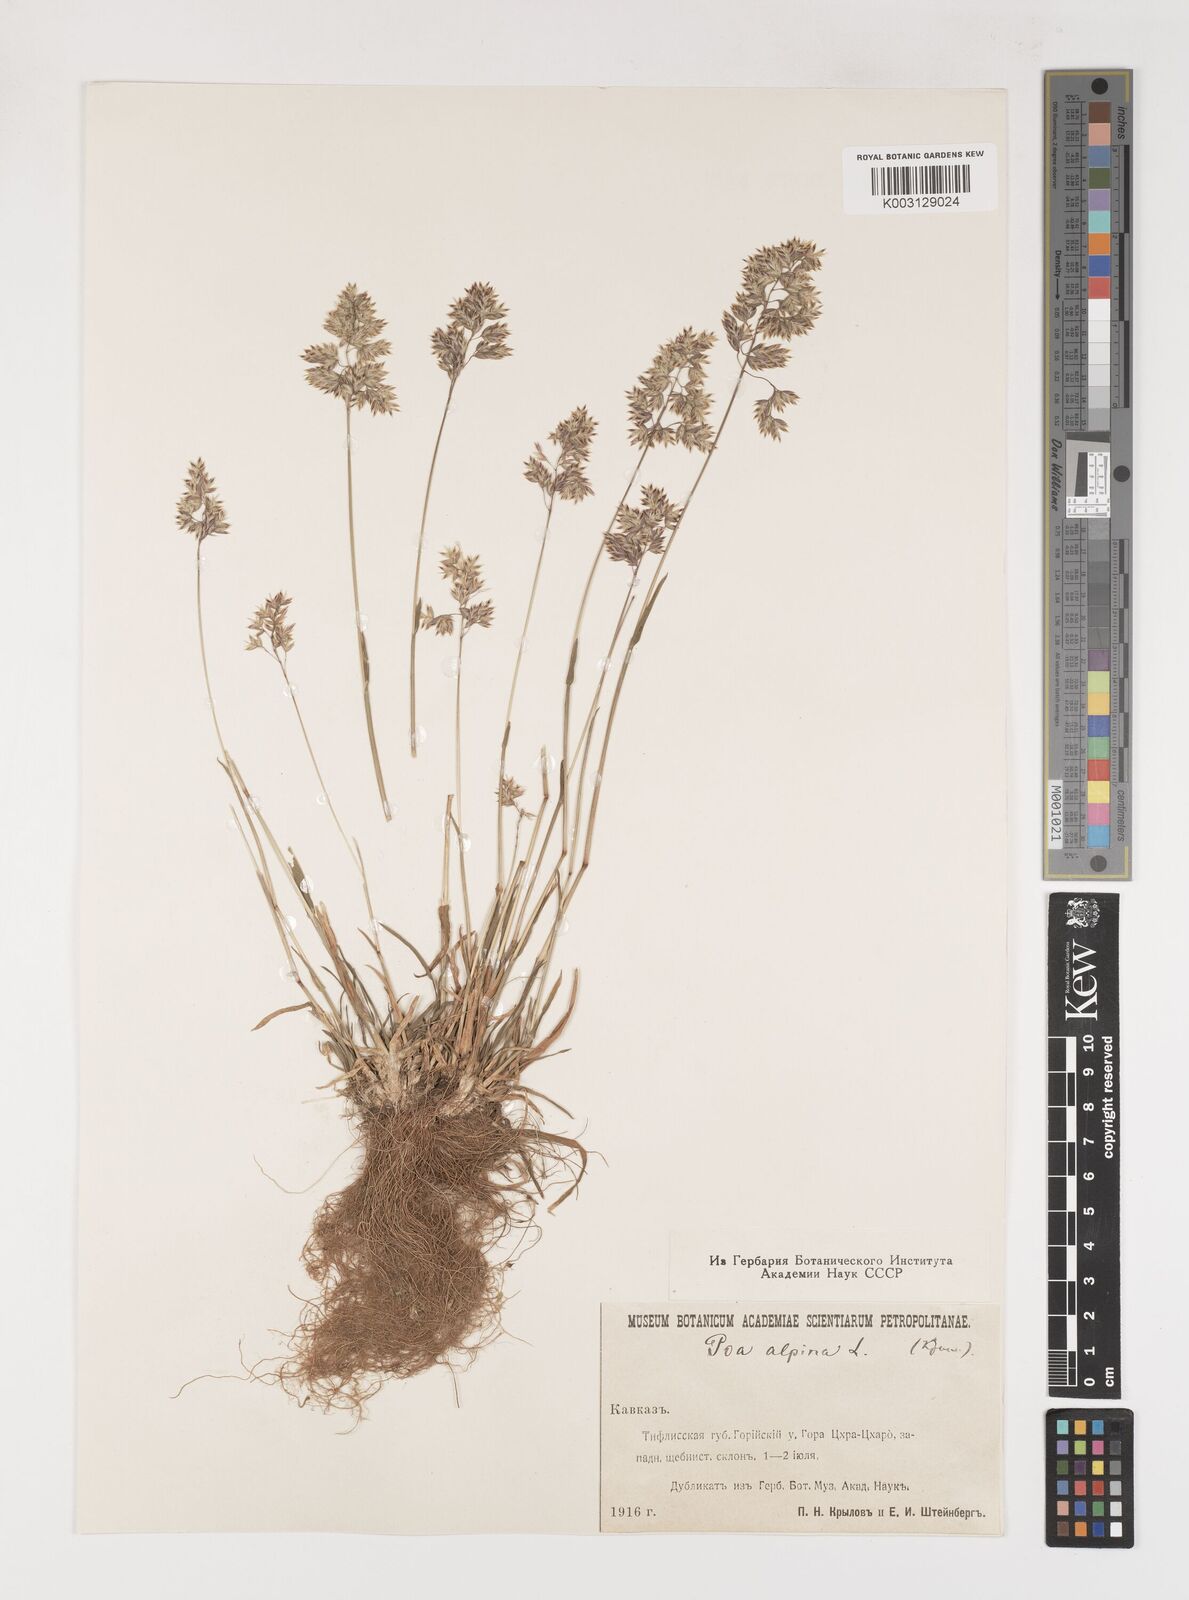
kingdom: Plantae
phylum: Tracheophyta
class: Liliopsida
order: Poales
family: Poaceae
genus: Poa
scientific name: Poa alpina
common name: Alpine bluegrass
